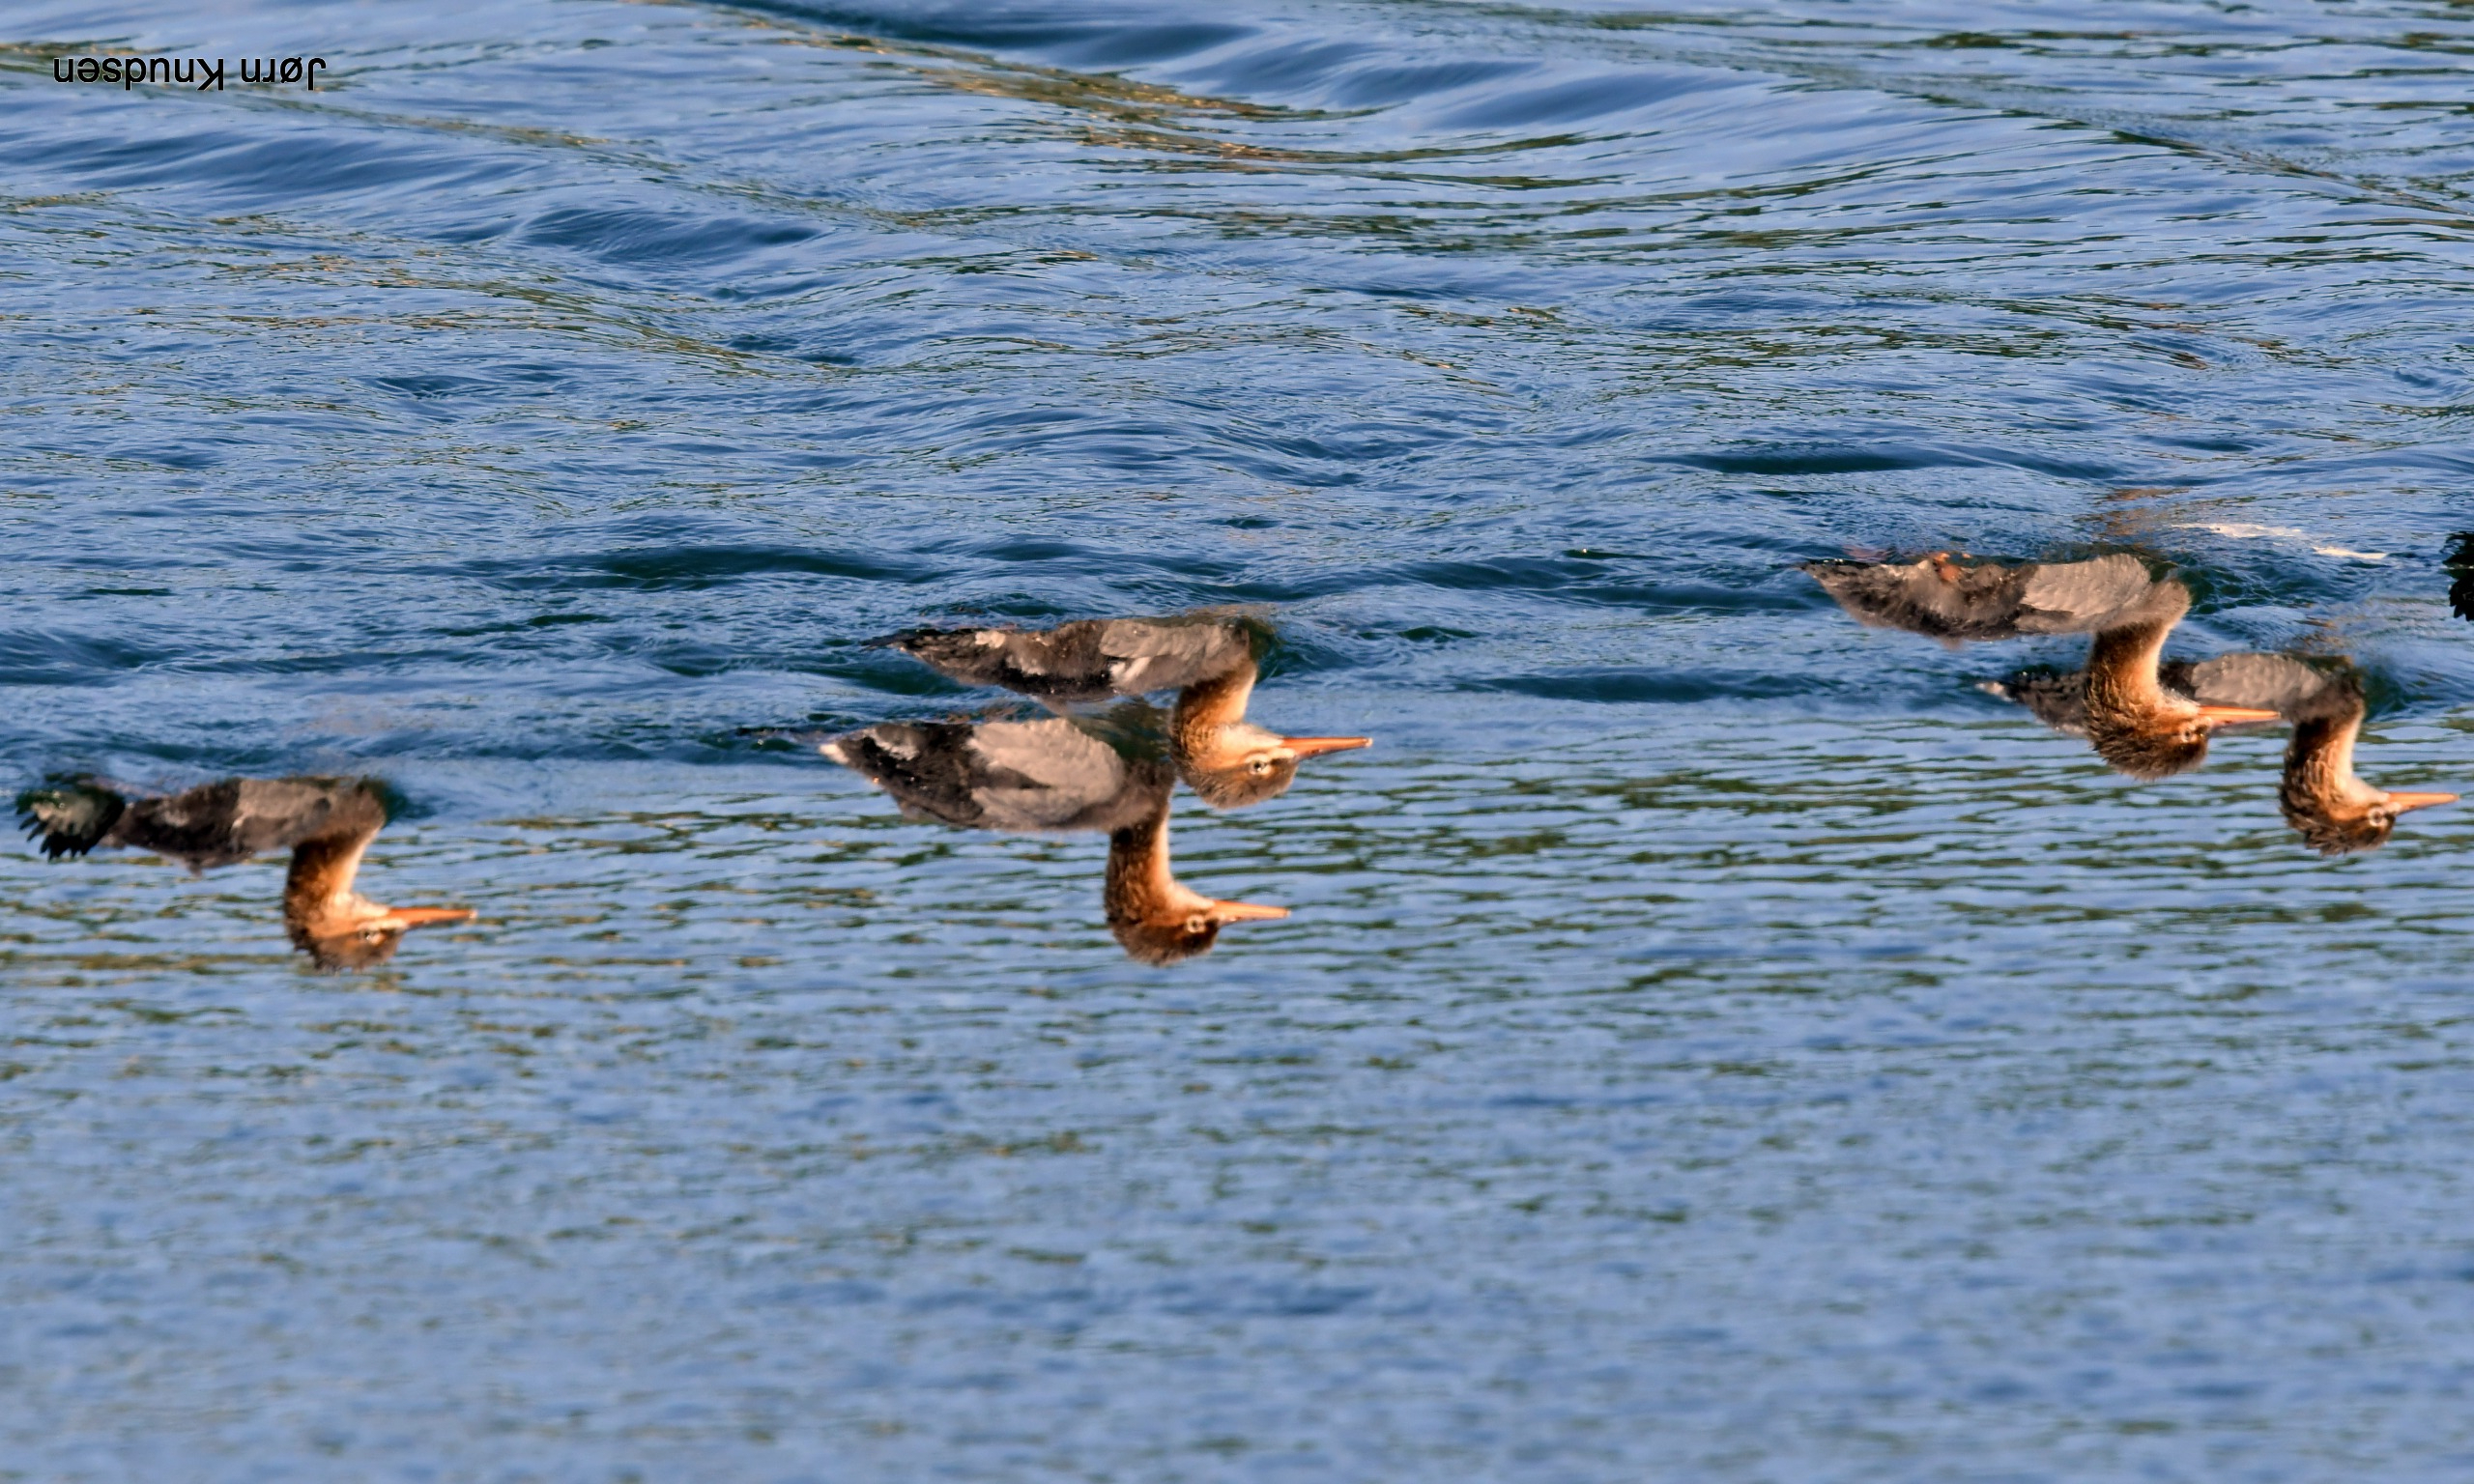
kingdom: Animalia
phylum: Chordata
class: Aves
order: Anseriformes
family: Anatidae
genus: Mergus
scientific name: Mergus serrator
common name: Toppet skallesluger
